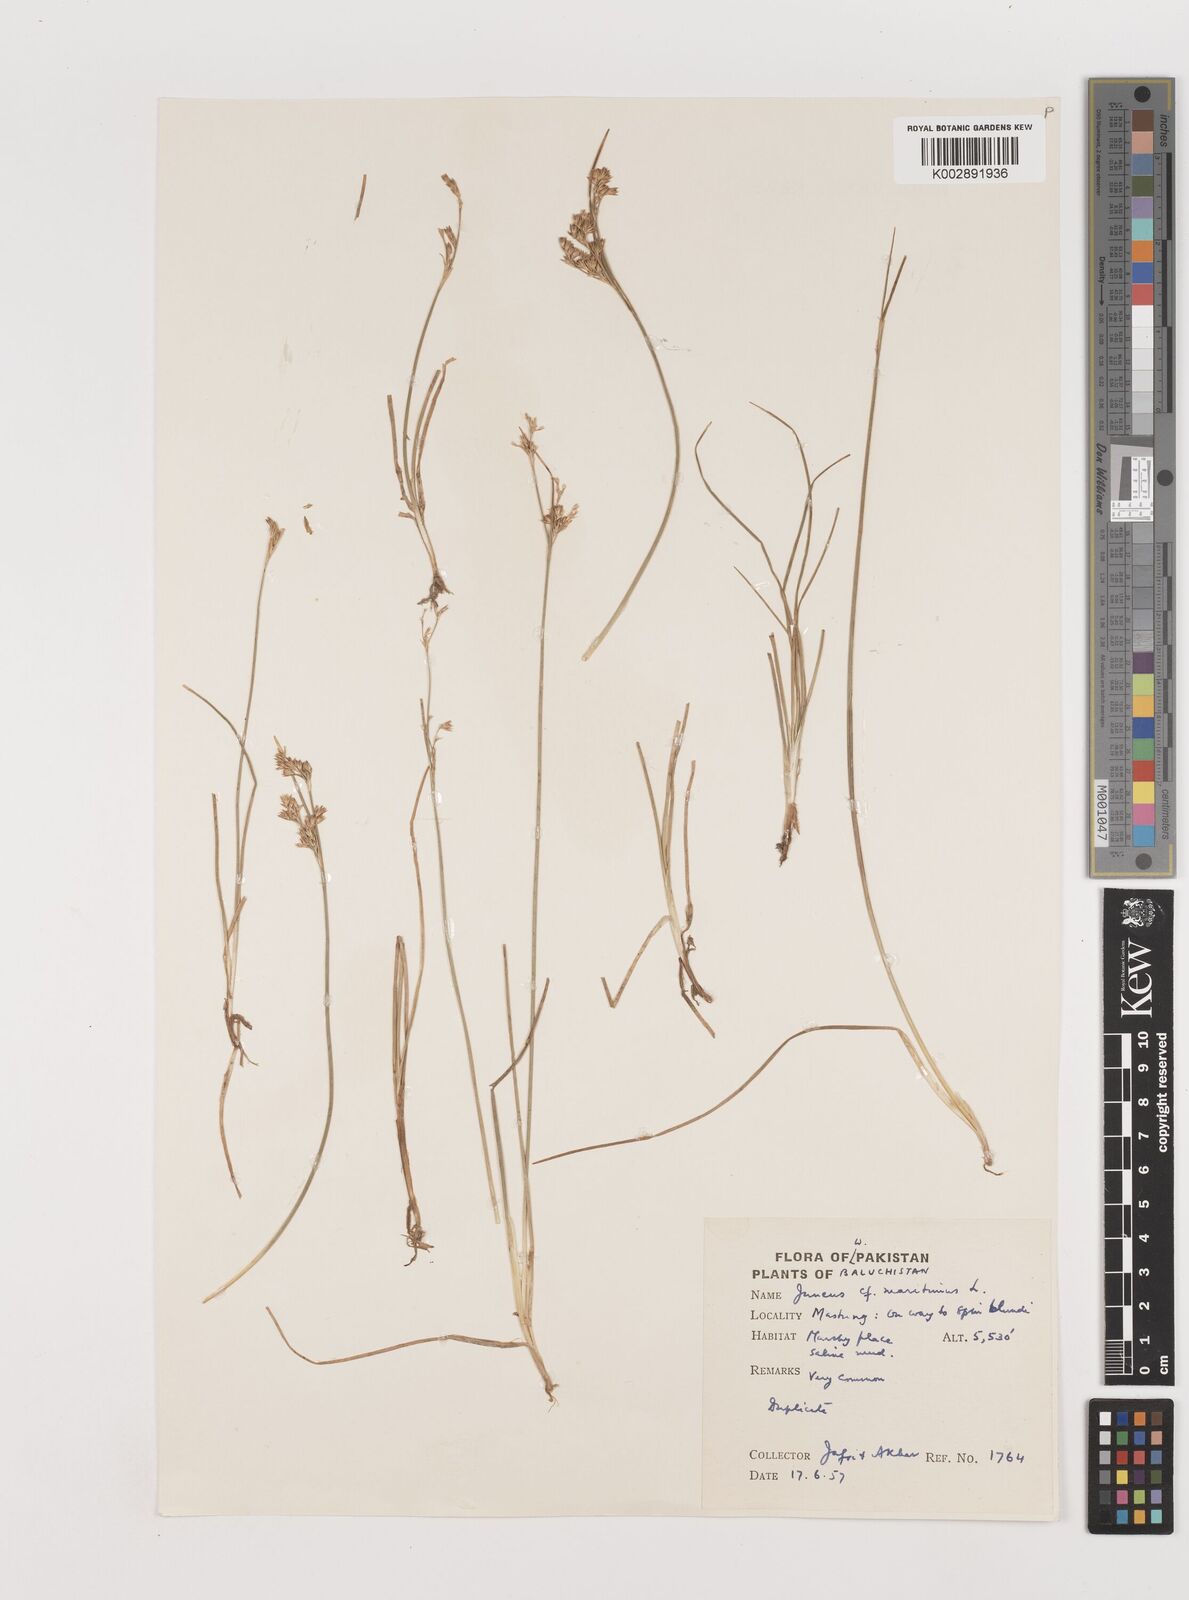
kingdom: Plantae
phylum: Tracheophyta
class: Liliopsida
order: Poales
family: Juncaceae
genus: Juncus
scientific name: Juncus
